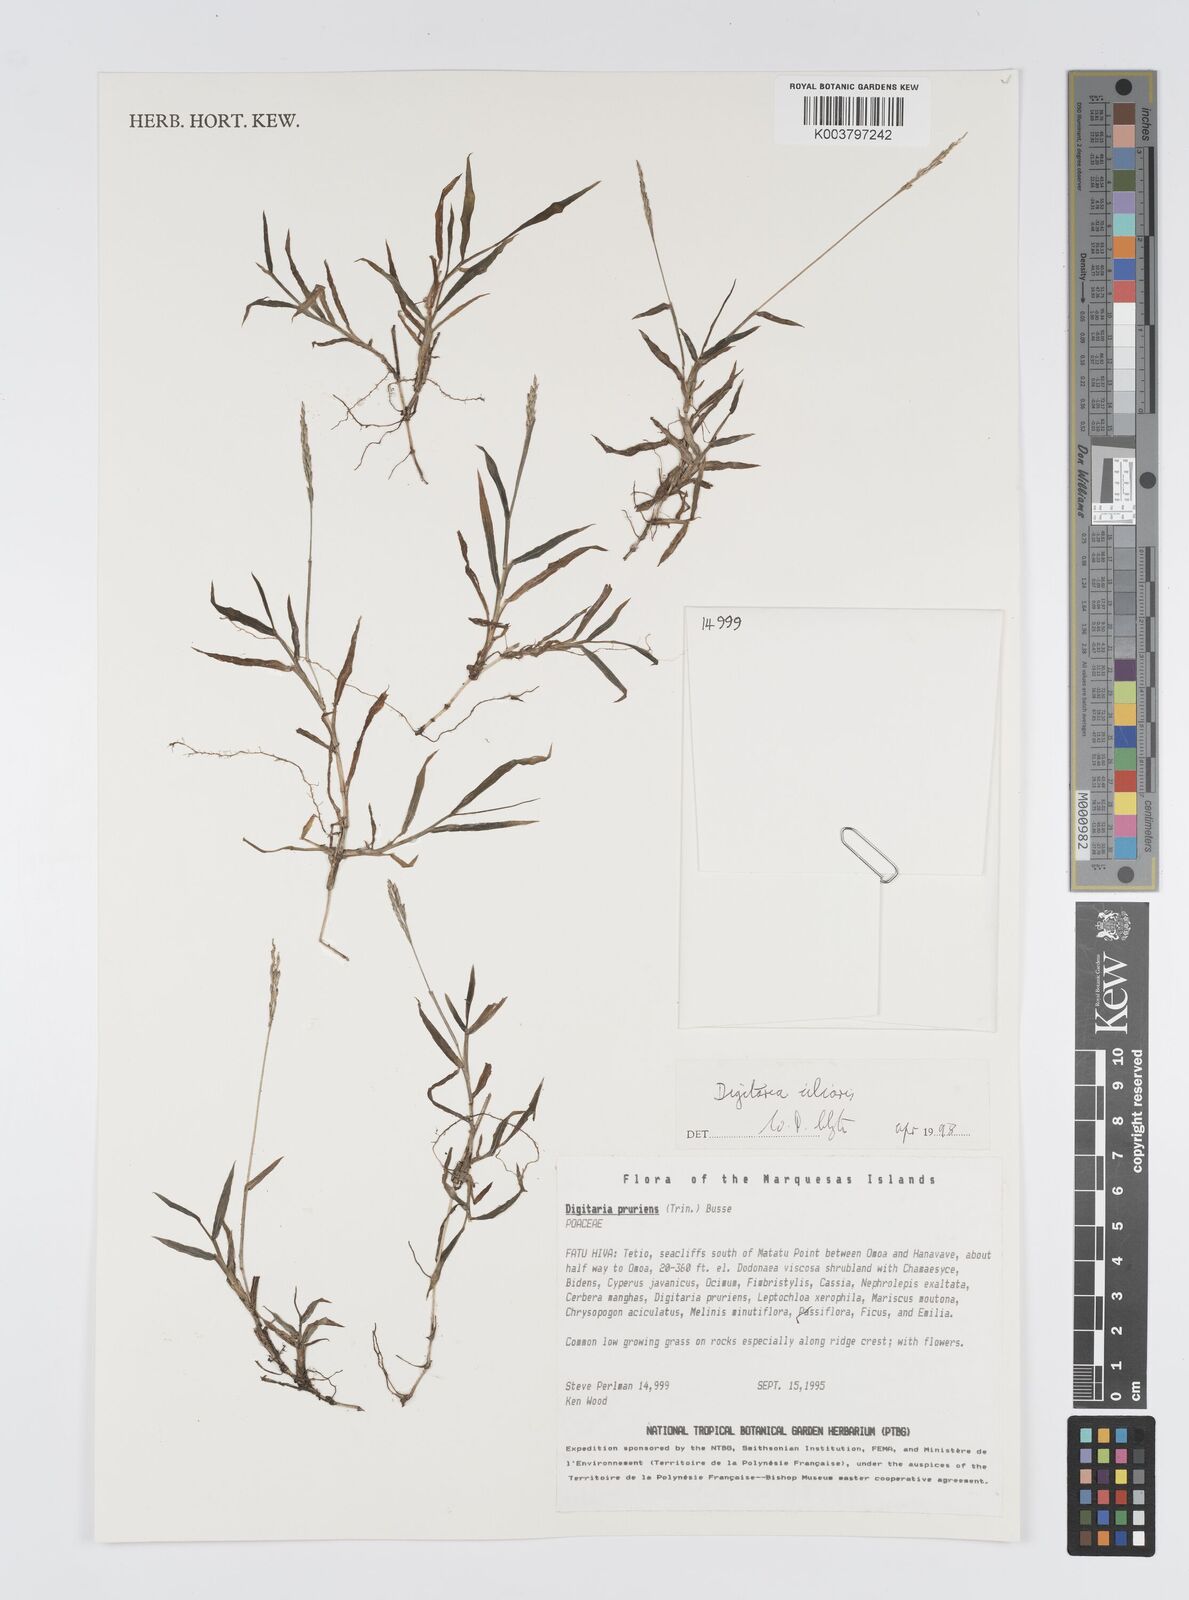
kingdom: Plantae
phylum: Tracheophyta
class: Liliopsida
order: Poales
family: Poaceae
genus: Digitaria
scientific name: Digitaria ciliaris
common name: Tropical finger-grass
